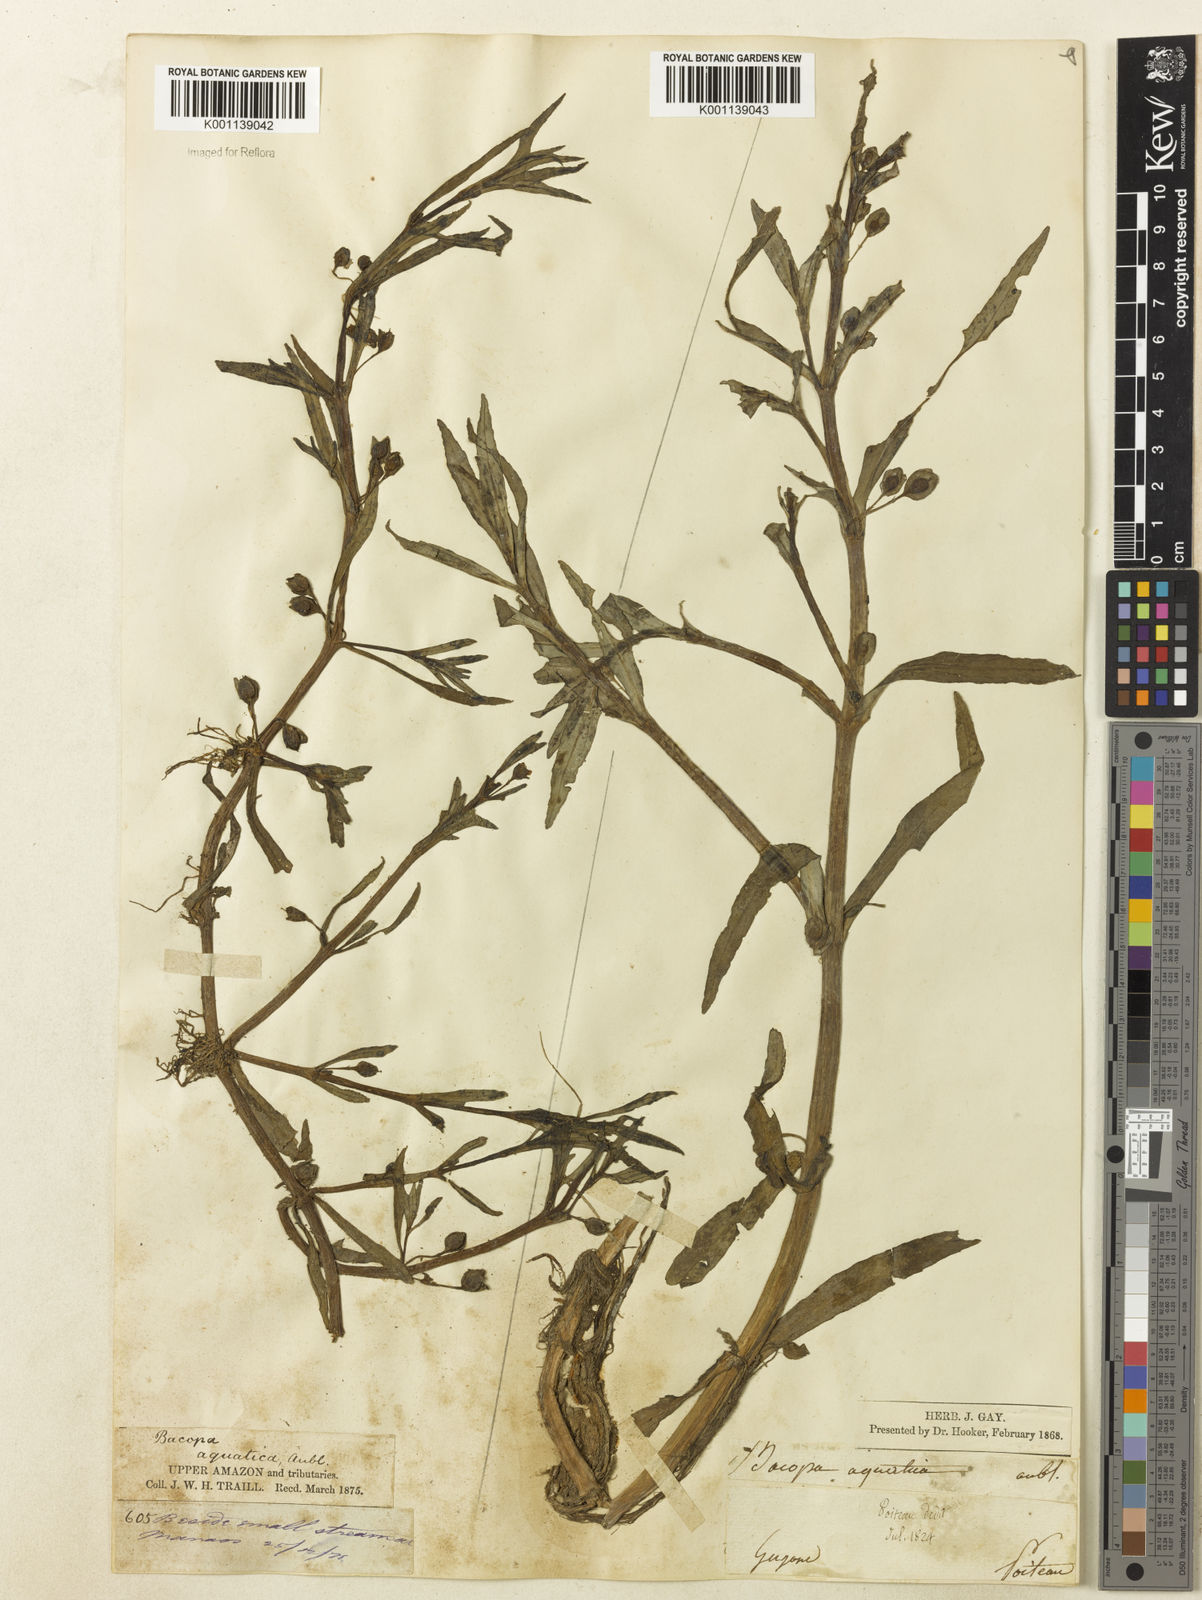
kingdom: Plantae
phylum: Tracheophyta
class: Magnoliopsida
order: Lamiales
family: Plantaginaceae
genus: Bacopa
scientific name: Bacopa aquatica
